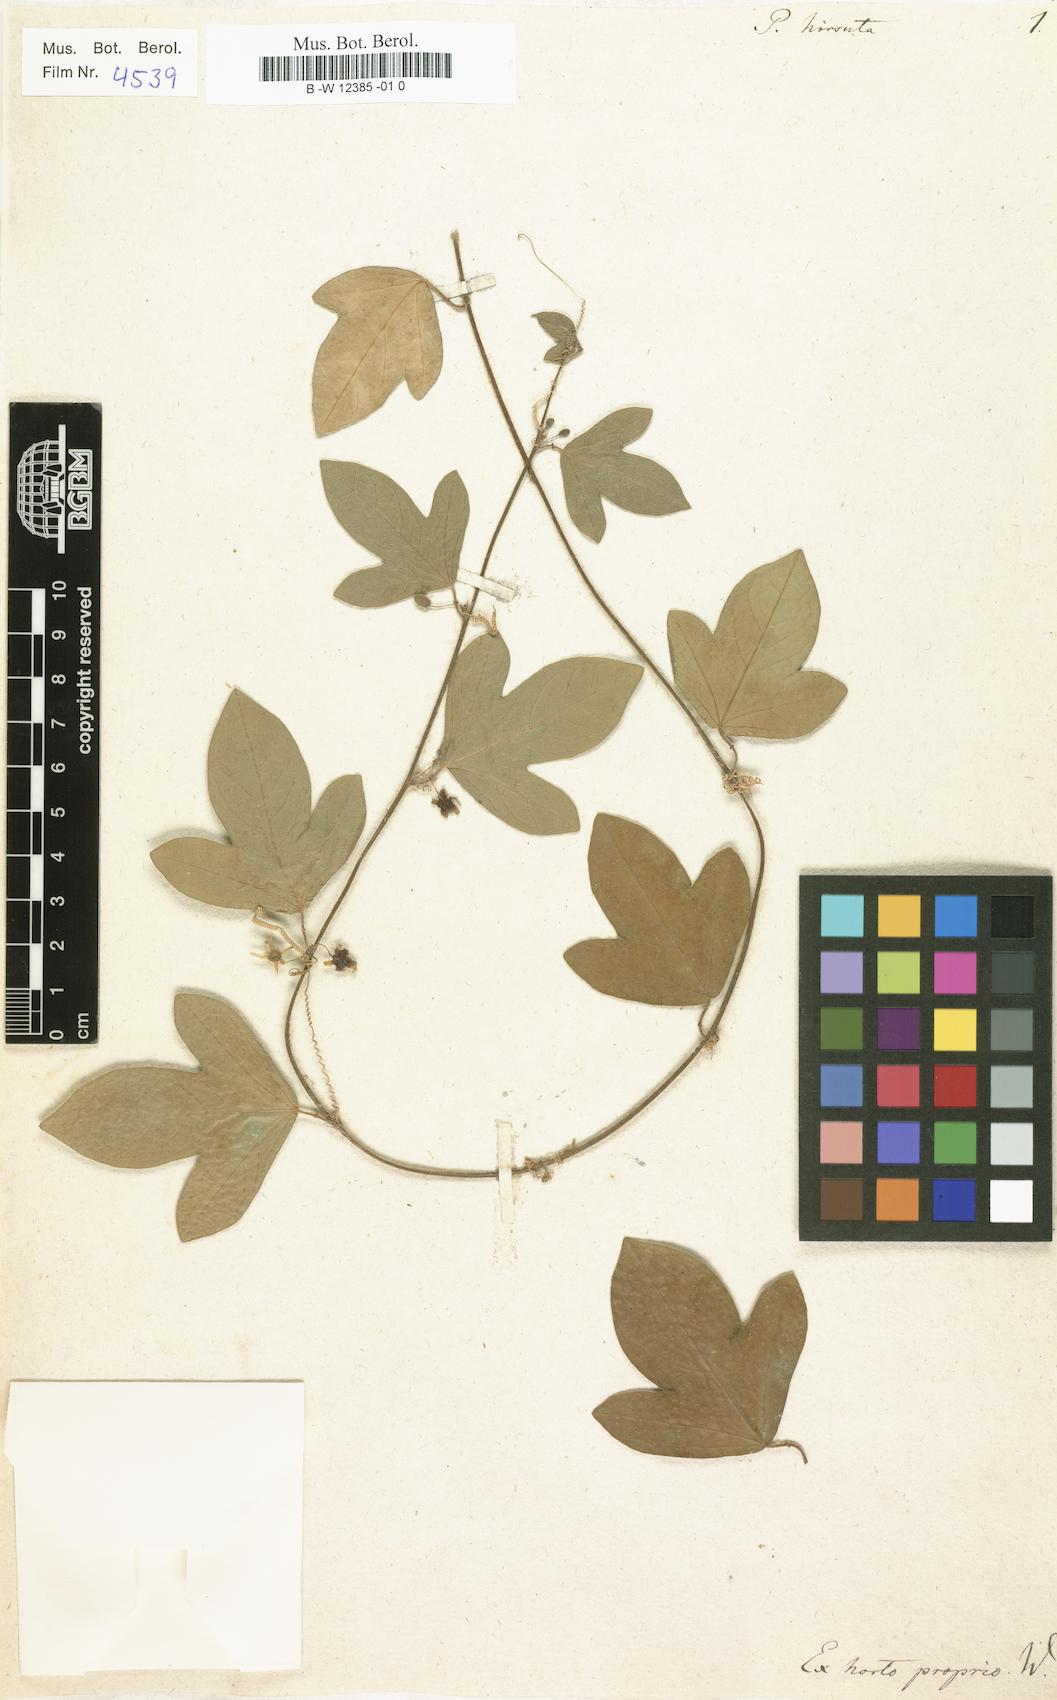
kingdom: Plantae
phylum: Tracheophyta
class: Magnoliopsida
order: Malpighiales
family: Passifloraceae
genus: Passiflora
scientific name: Passiflora
